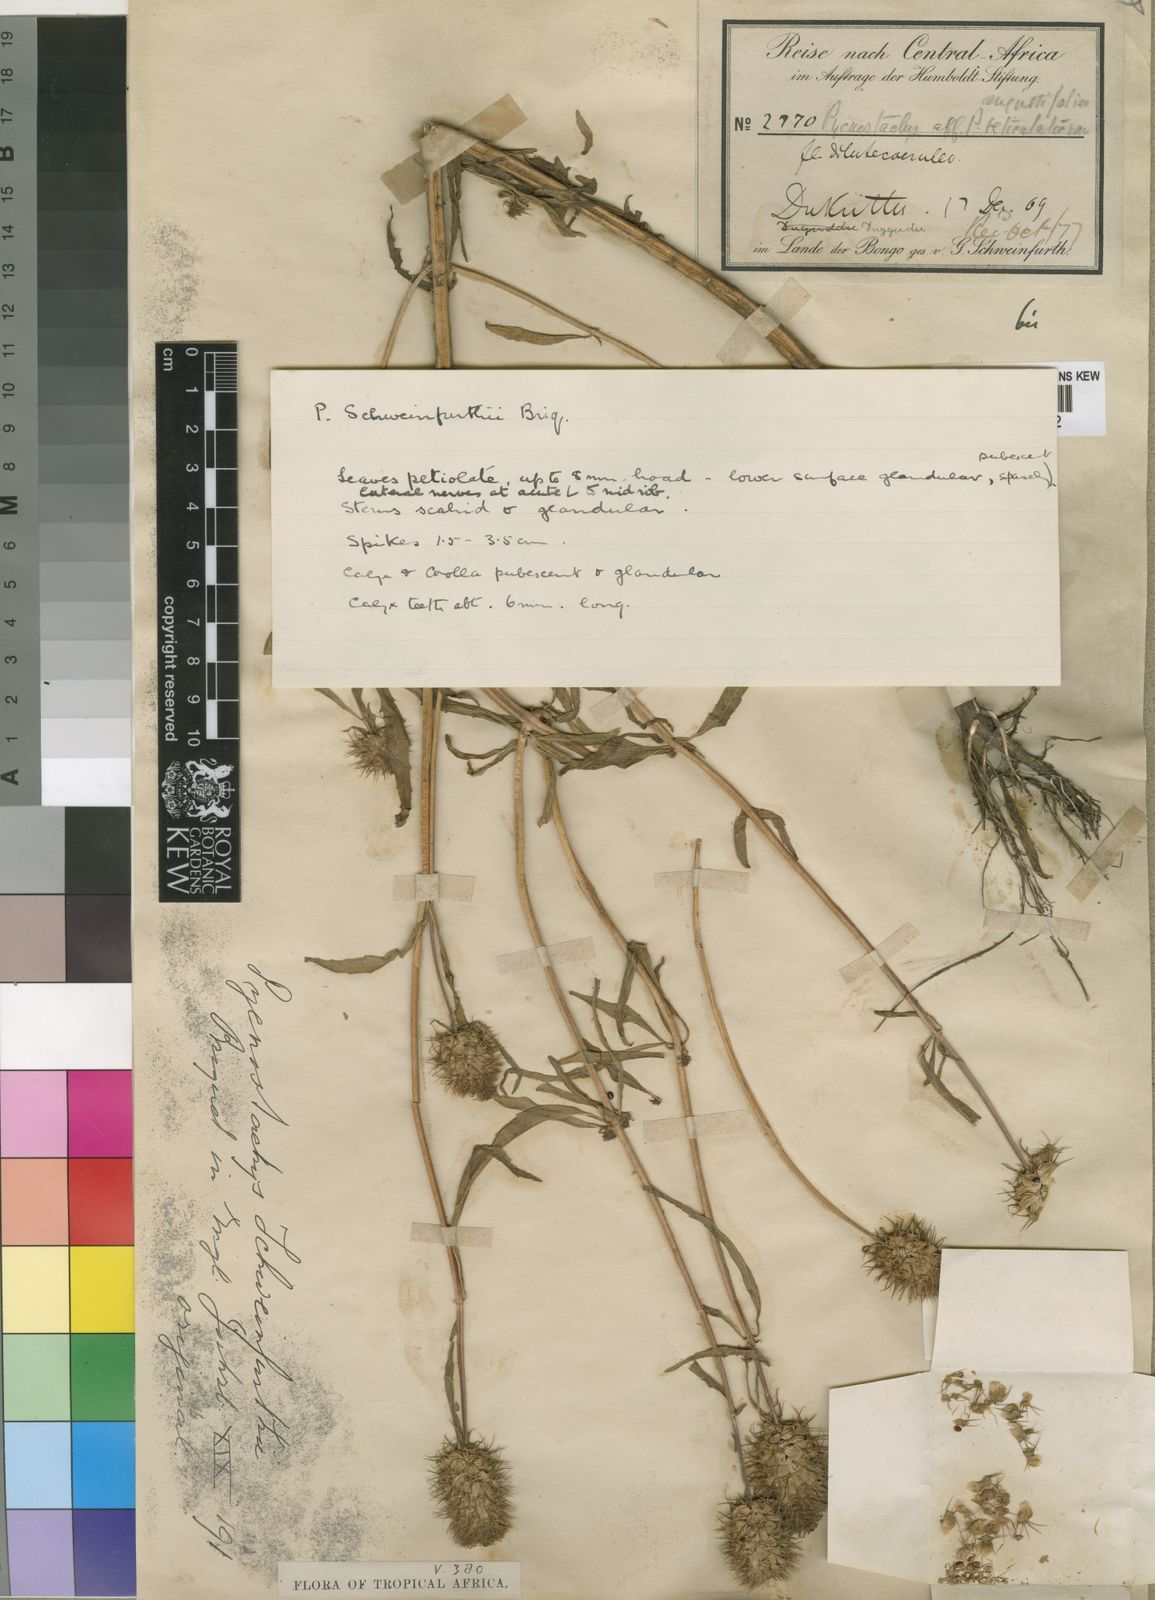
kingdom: Plantae
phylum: Tracheophyta
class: Magnoliopsida
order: Lamiales
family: Lamiaceae
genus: Coleus
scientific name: Coleus togoensis
